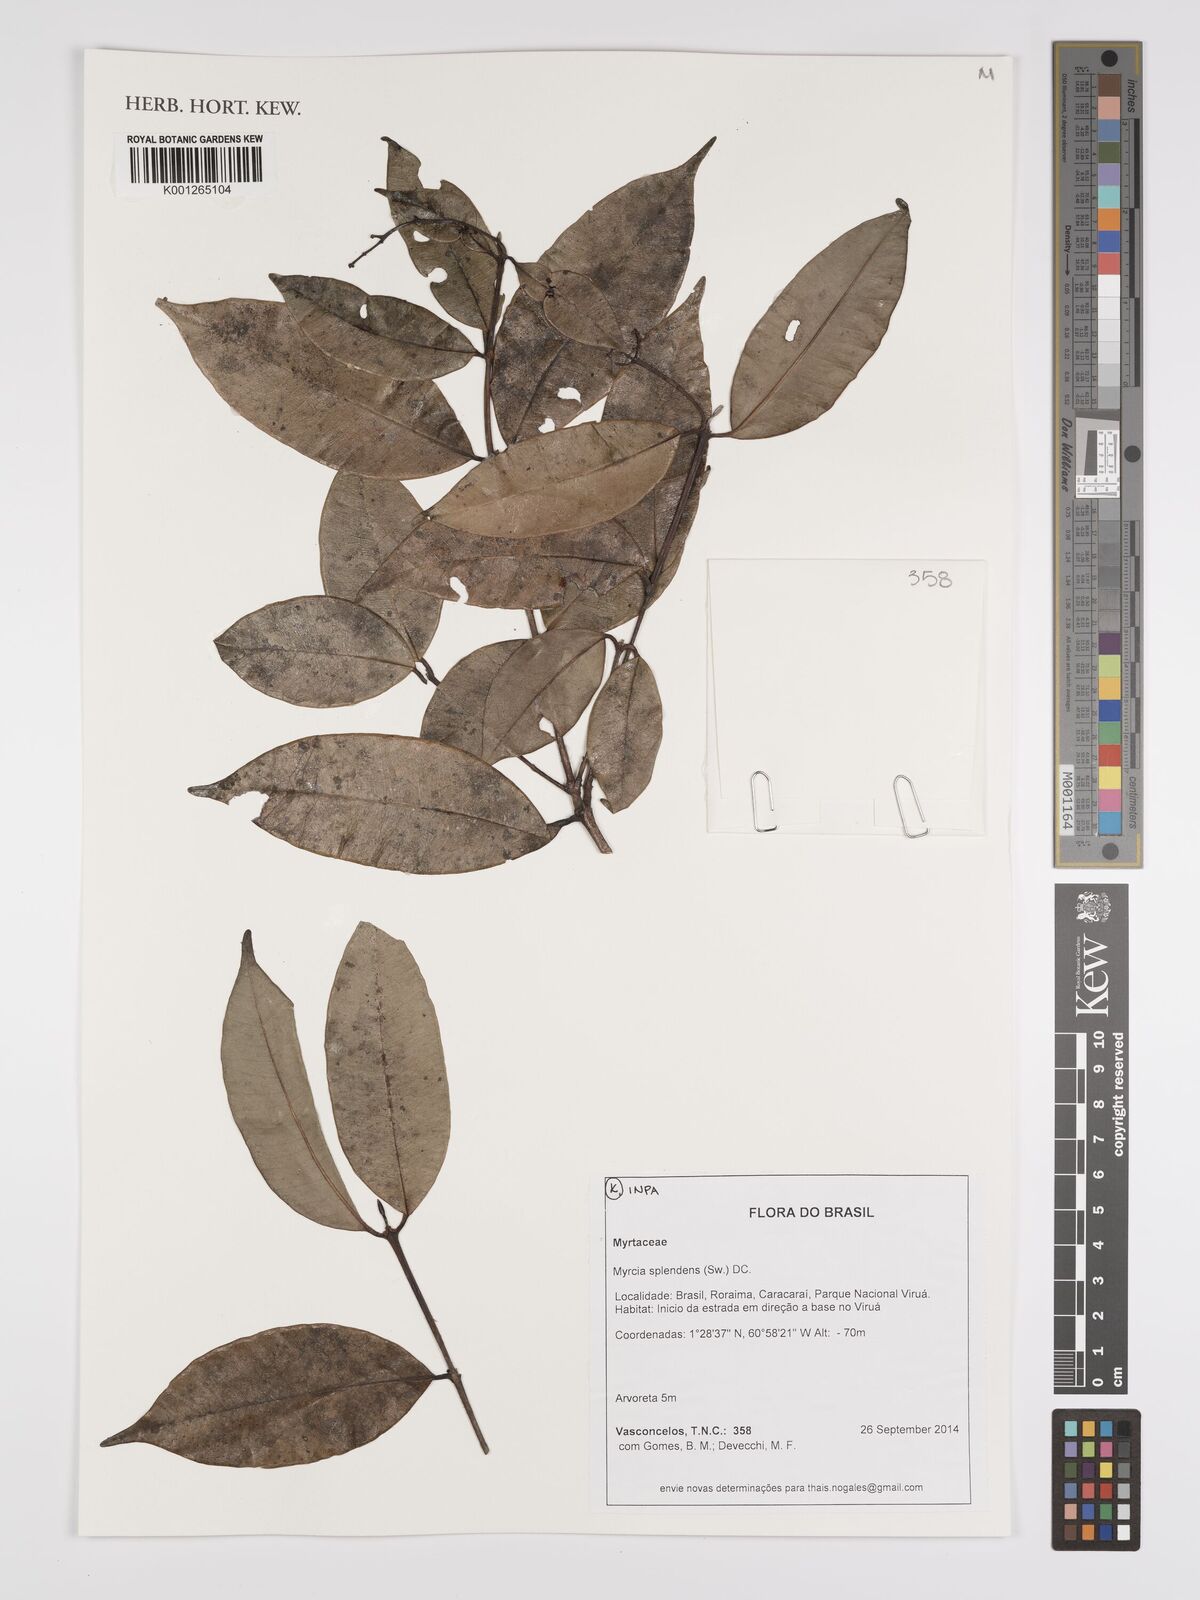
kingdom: Plantae
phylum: Tracheophyta
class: Magnoliopsida
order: Myrtales
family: Myrtaceae
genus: Myrcia
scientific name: Myrcia splendens
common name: Surinam cherry
